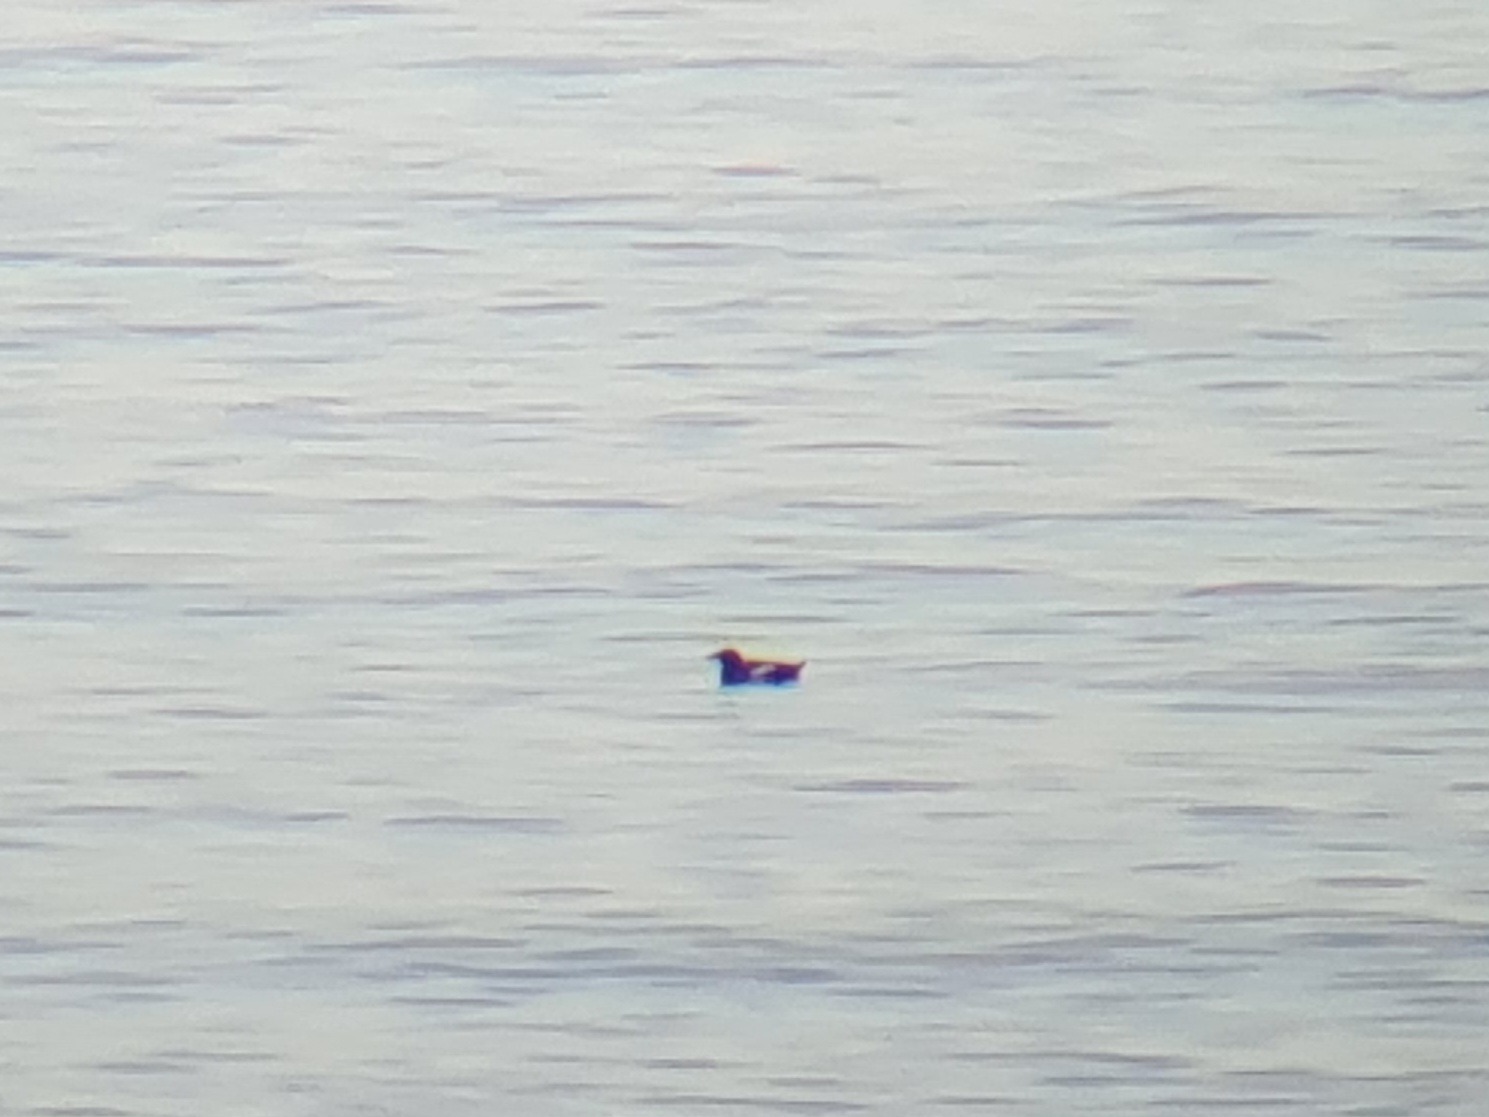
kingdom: Animalia
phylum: Chordata
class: Aves
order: Charadriiformes
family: Alcidae
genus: Cepphus
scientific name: Cepphus grylle
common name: Tejst
